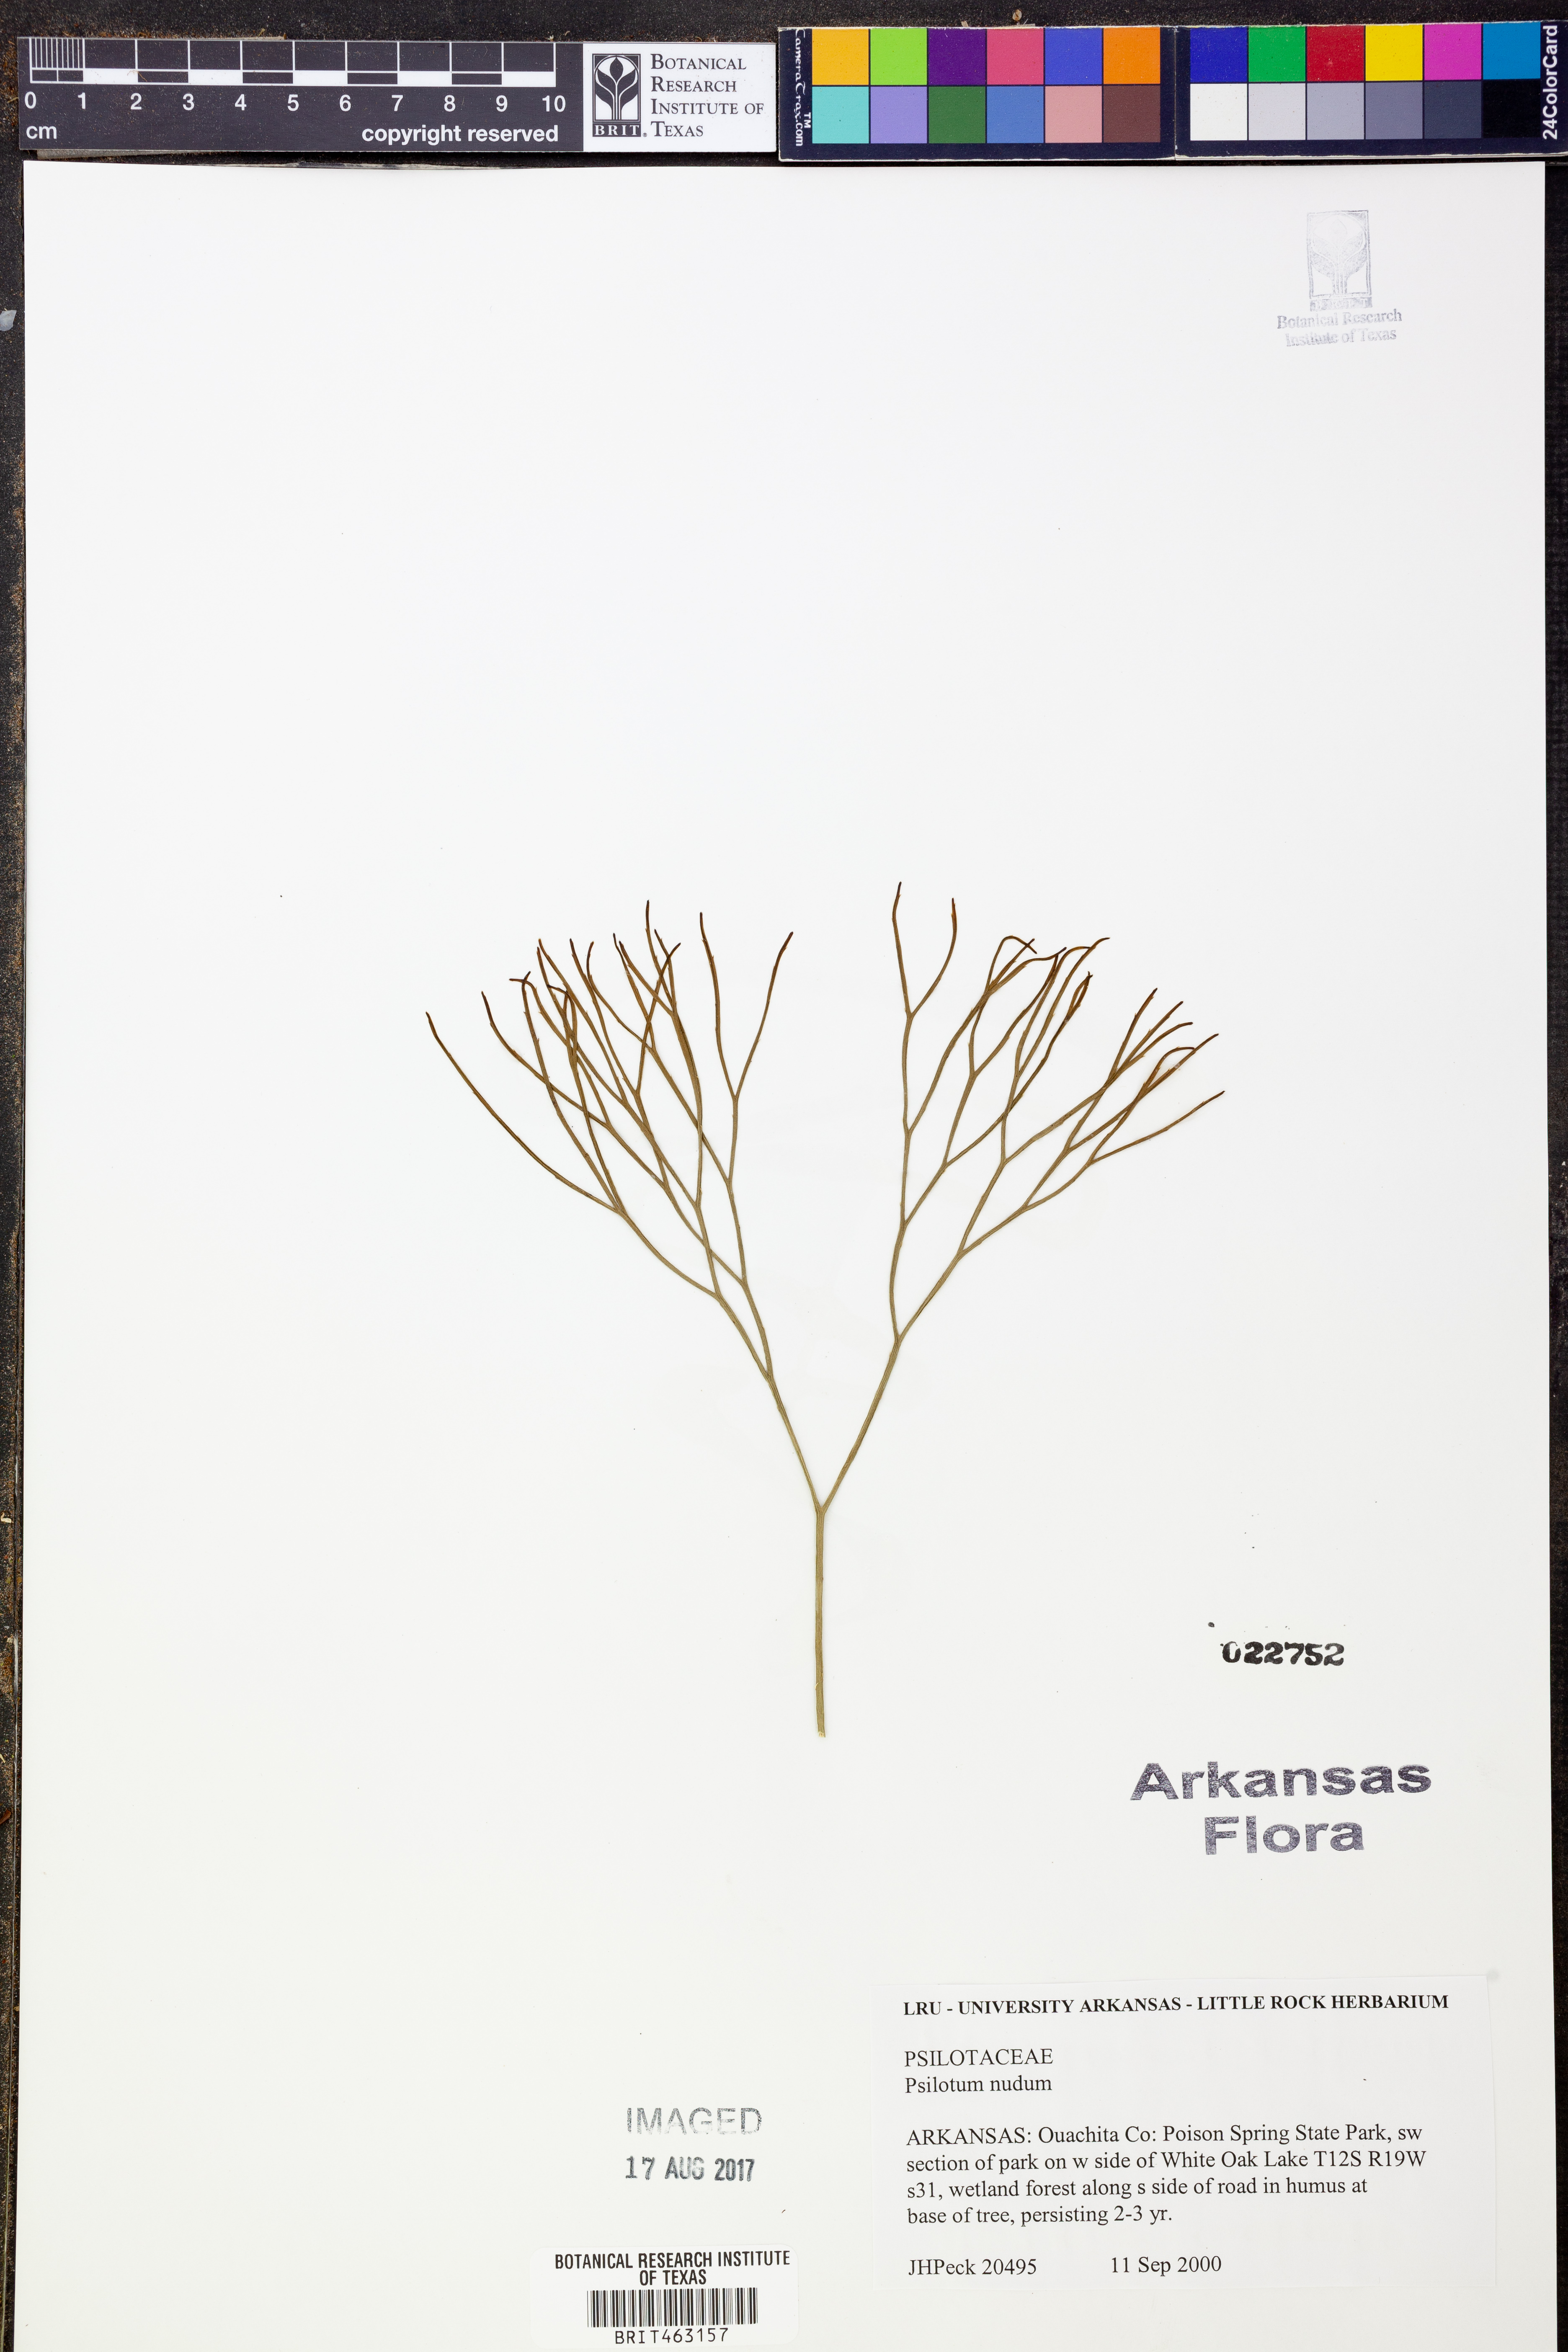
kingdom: Plantae
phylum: Tracheophyta
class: Polypodiopsida
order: Psilotales
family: Psilotaceae
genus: Psilotum
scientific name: Psilotum nudum
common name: Skeleton fork fern
